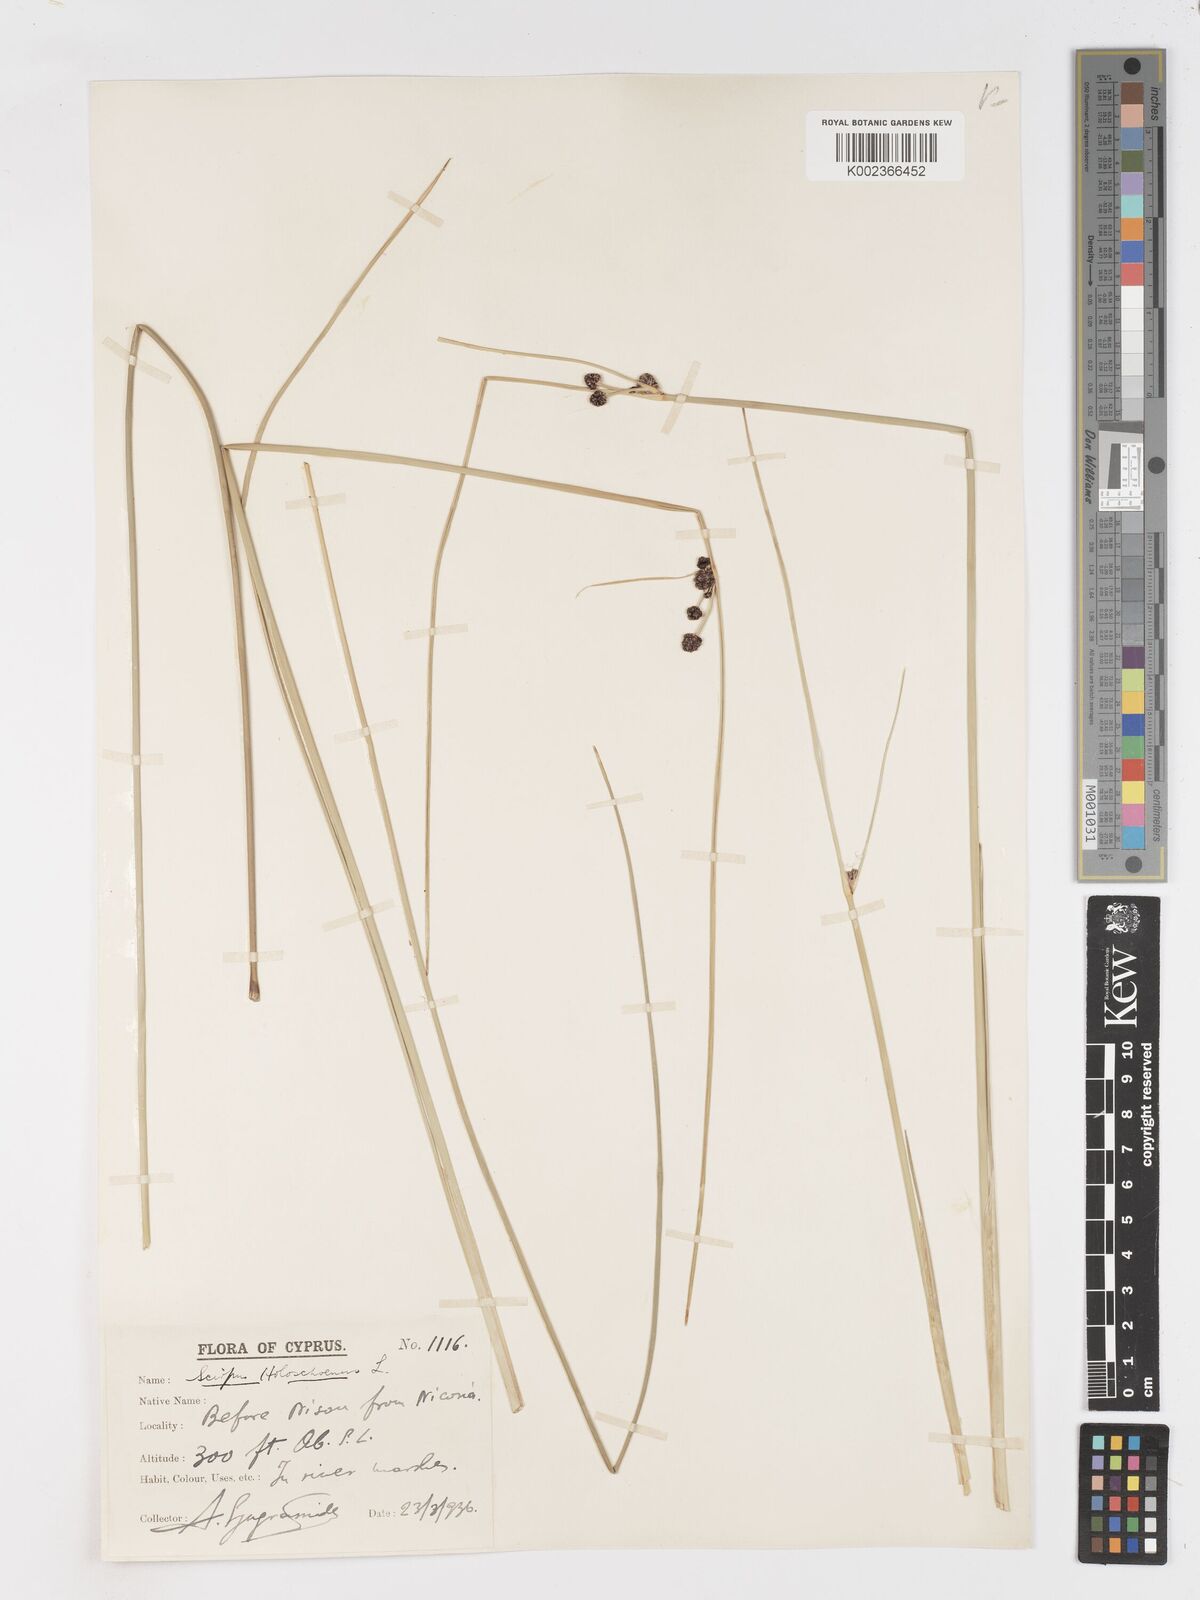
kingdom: Plantae
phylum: Tracheophyta
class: Liliopsida
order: Poales
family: Cyperaceae
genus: Scirpoides
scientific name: Scirpoides holoschoenus
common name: Round-headed club-rush
